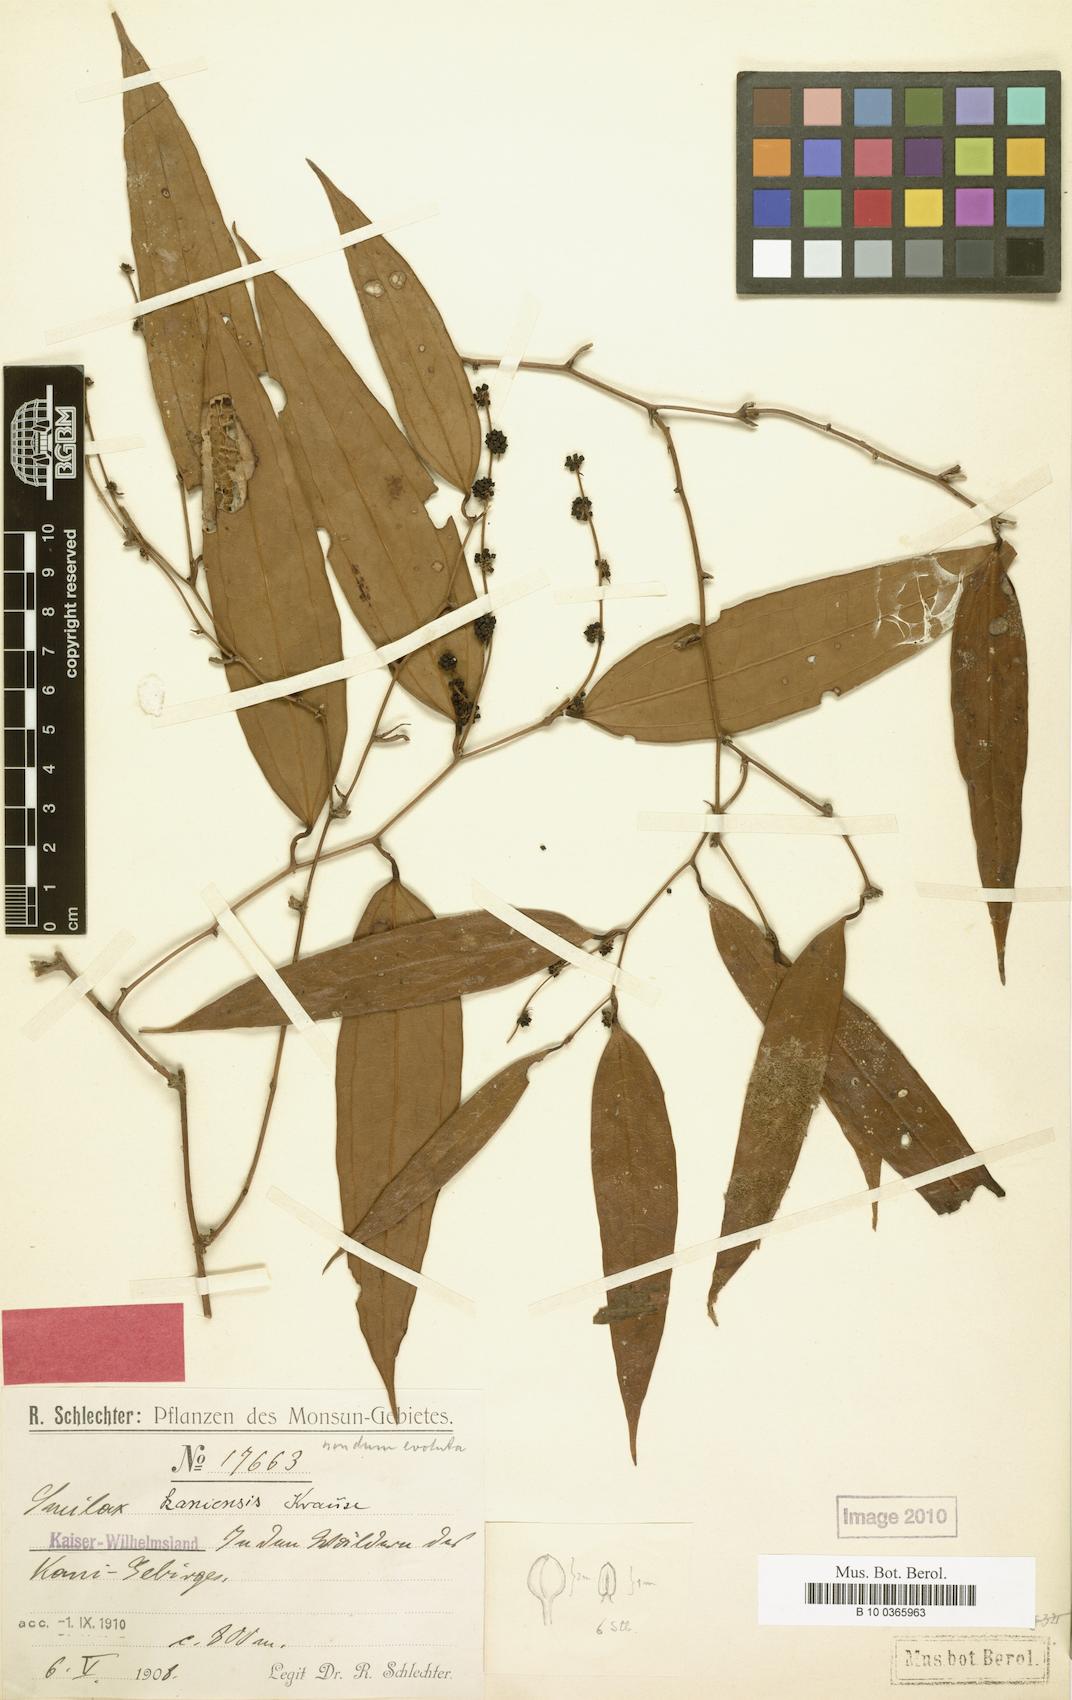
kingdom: Plantae
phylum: Tracheophyta
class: Liliopsida
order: Liliales
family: Smilacaceae
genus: Smilax
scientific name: Smilax kaniensis
